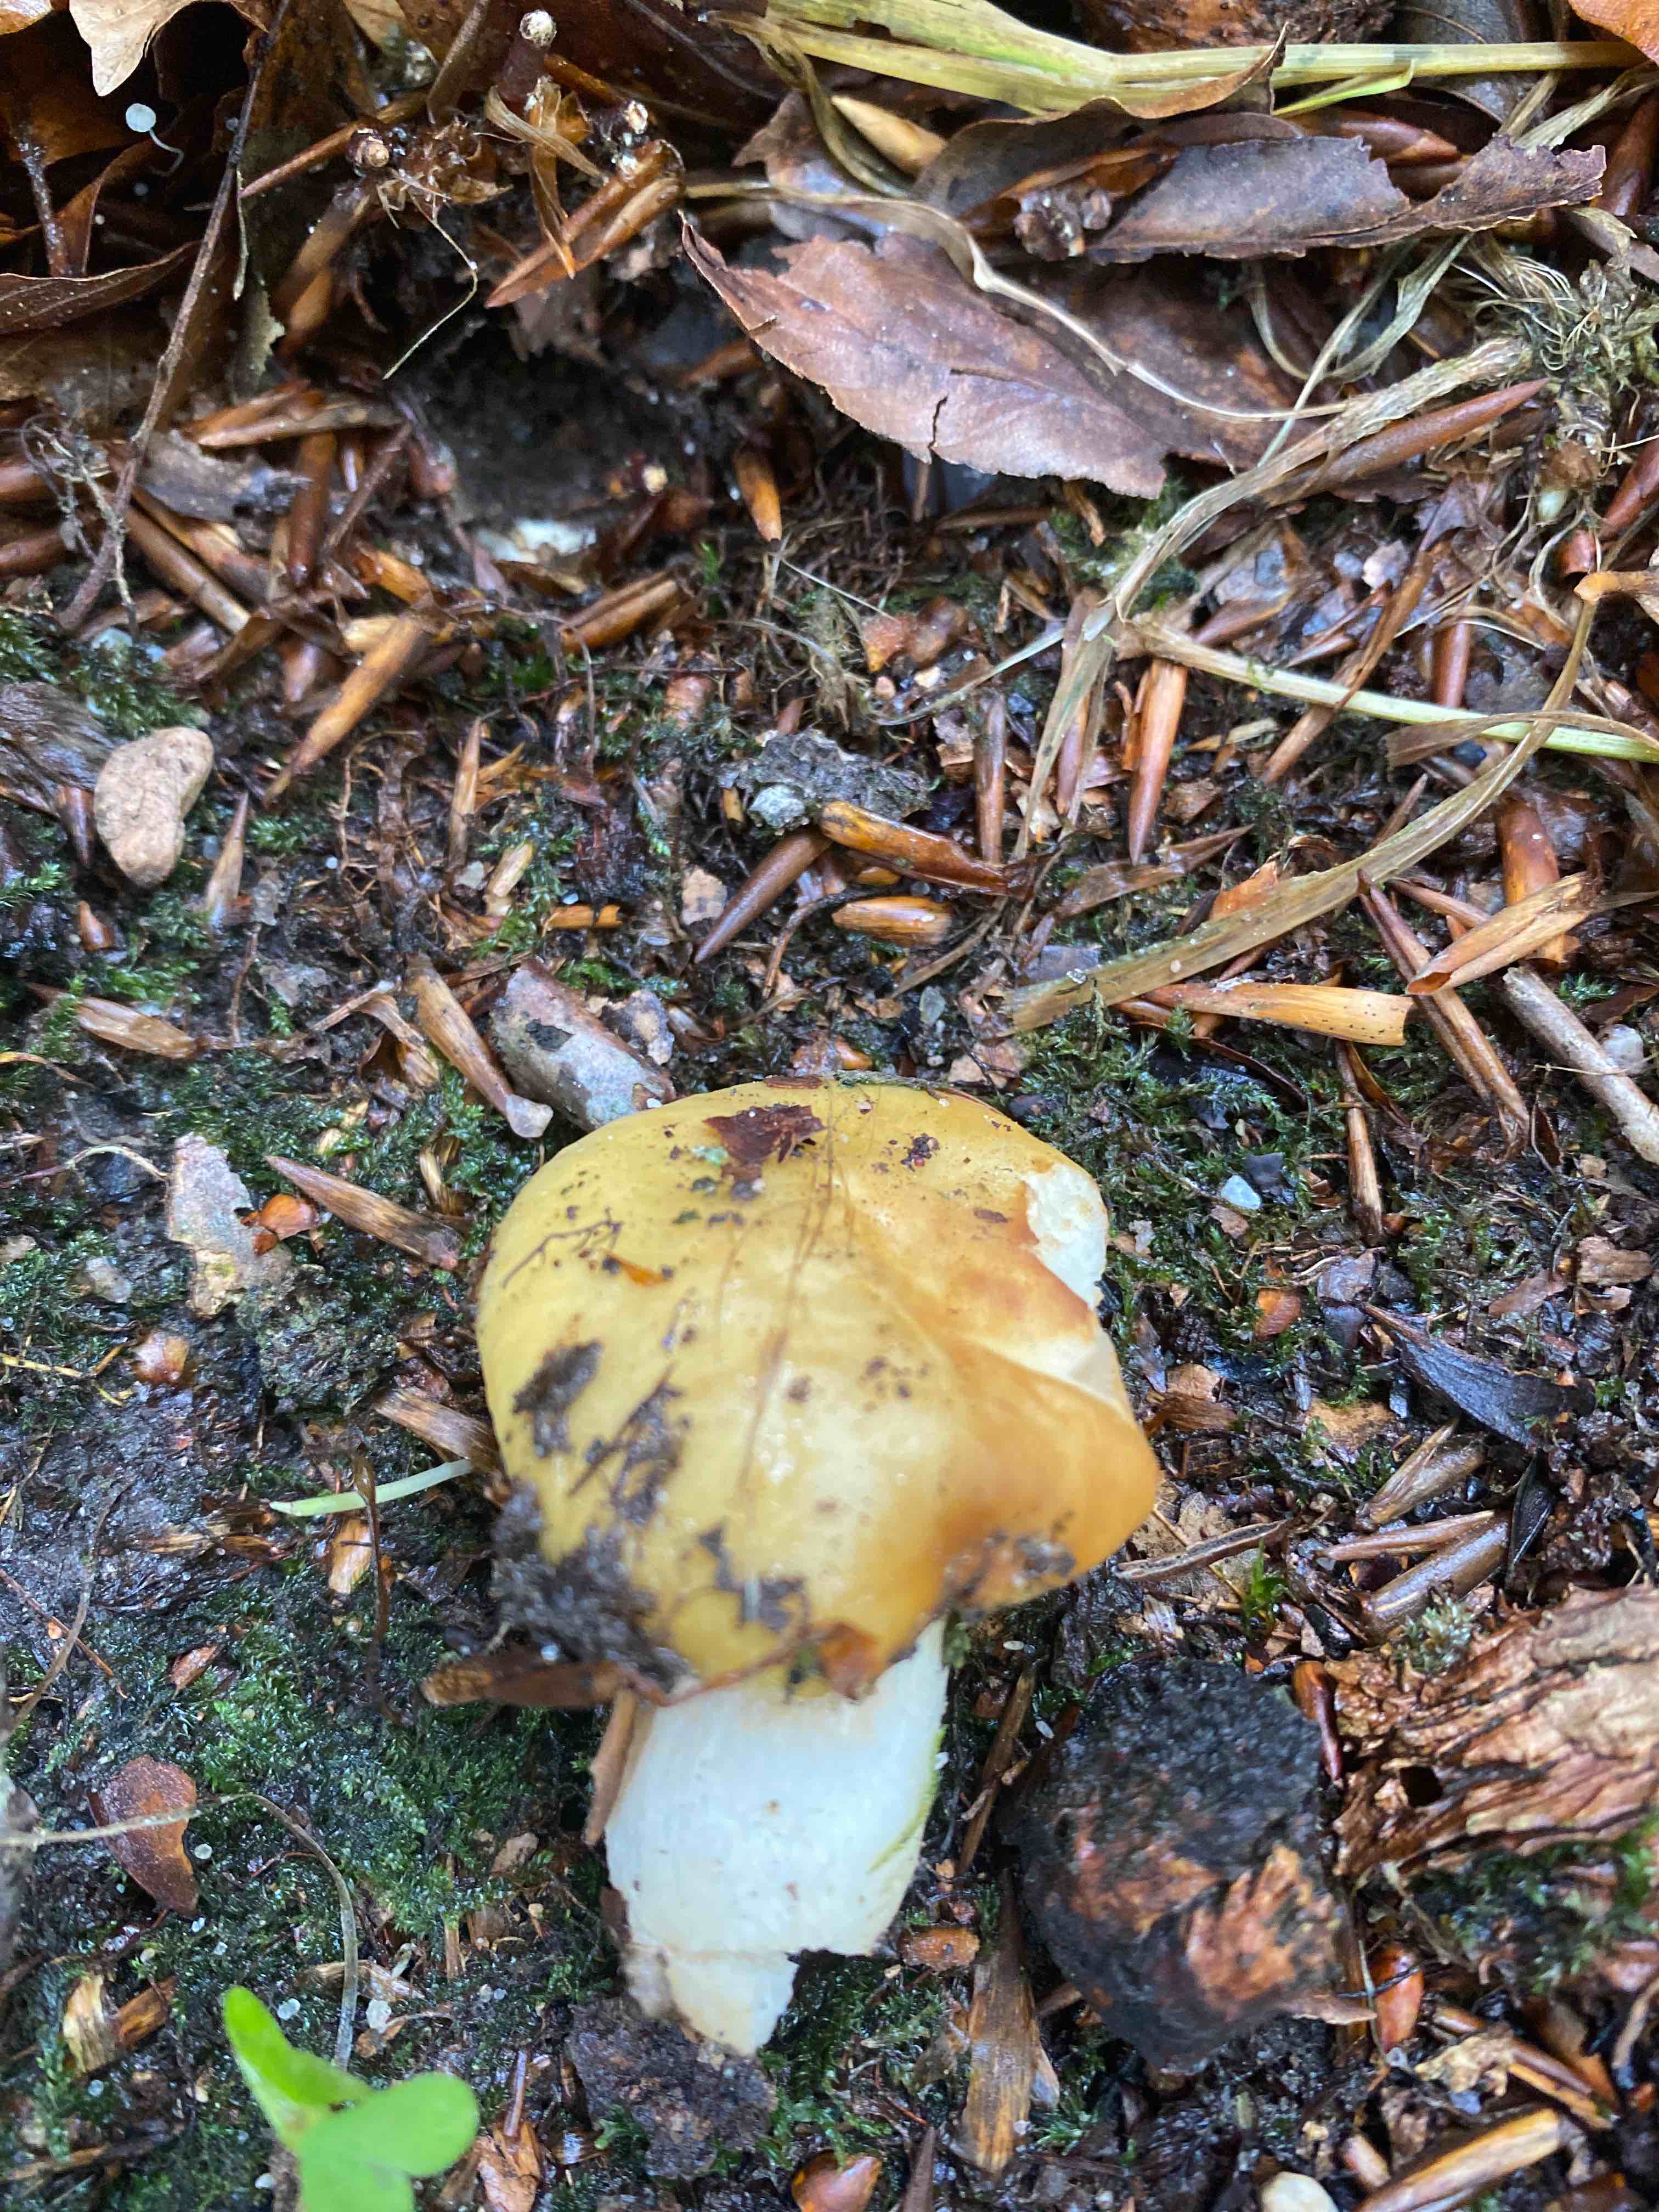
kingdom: Fungi
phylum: Basidiomycota
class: Agaricomycetes
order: Russulales
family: Russulaceae
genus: Russula
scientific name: Russula ochroleuca
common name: okkergul skørhat
